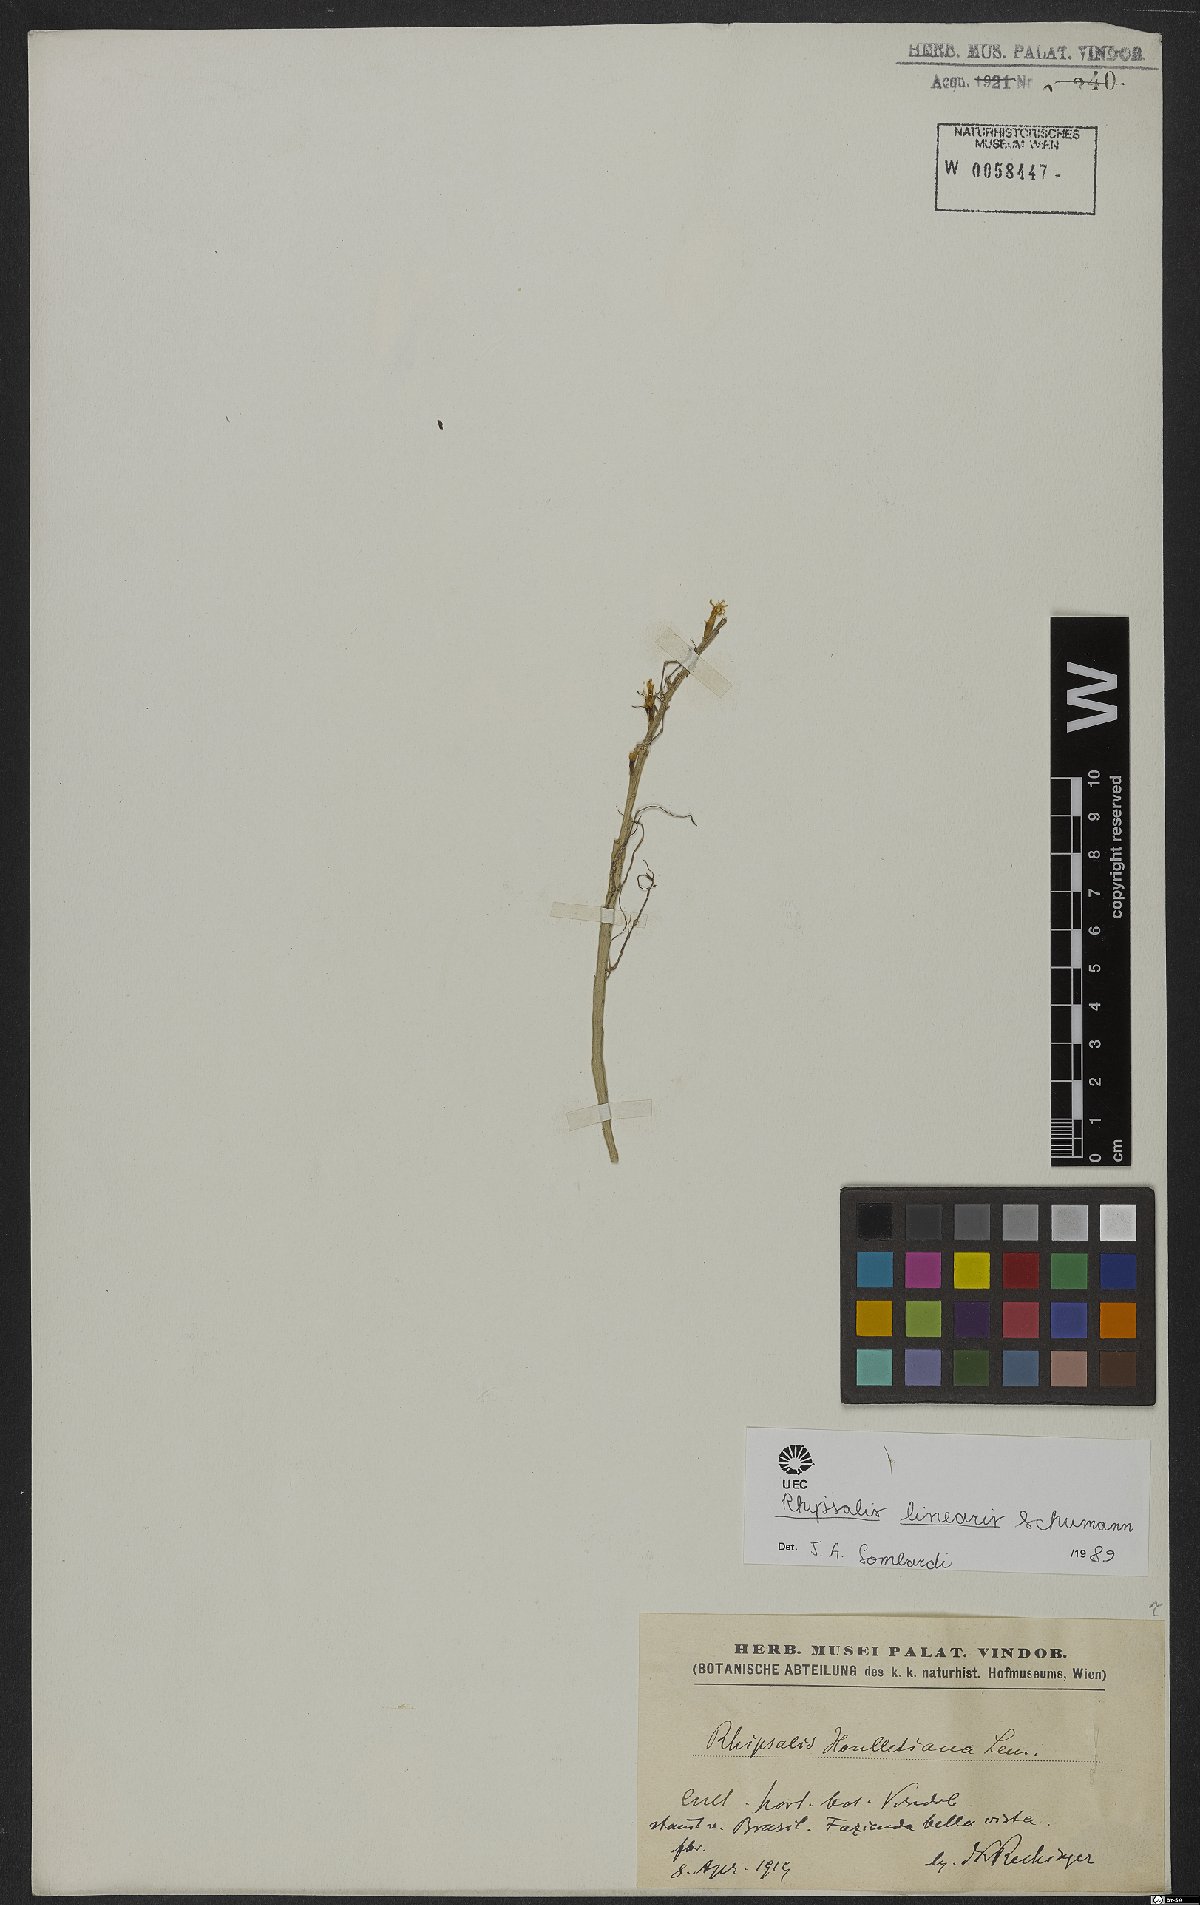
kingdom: Plantae
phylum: Tracheophyta
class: Magnoliopsida
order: Caryophyllales
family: Cactaceae
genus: Lepismium
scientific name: Lepismium warmingianum
